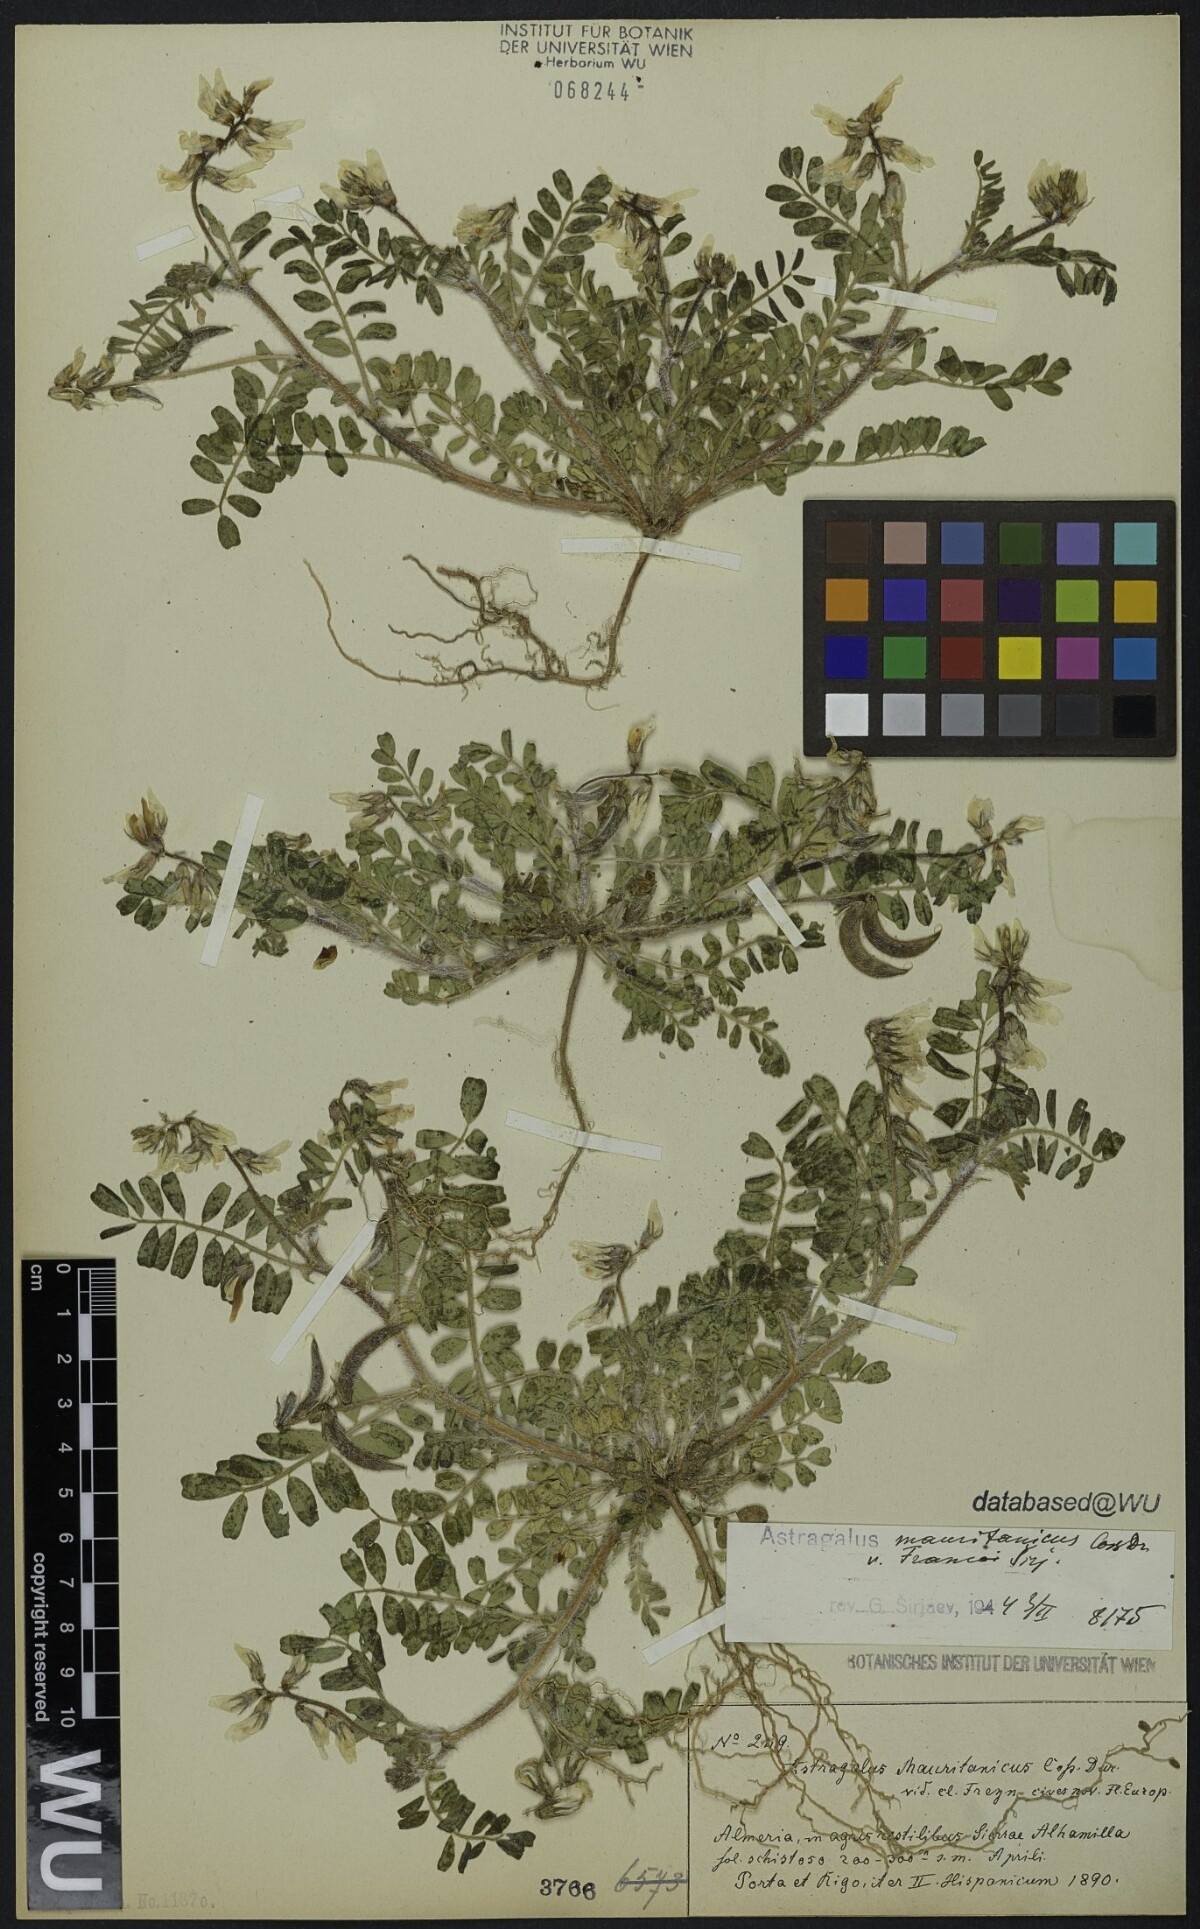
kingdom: Plantae
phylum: Tracheophyta
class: Magnoliopsida
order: Fabales
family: Fabaceae
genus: Astragalus
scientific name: Astragalus longidentatus
